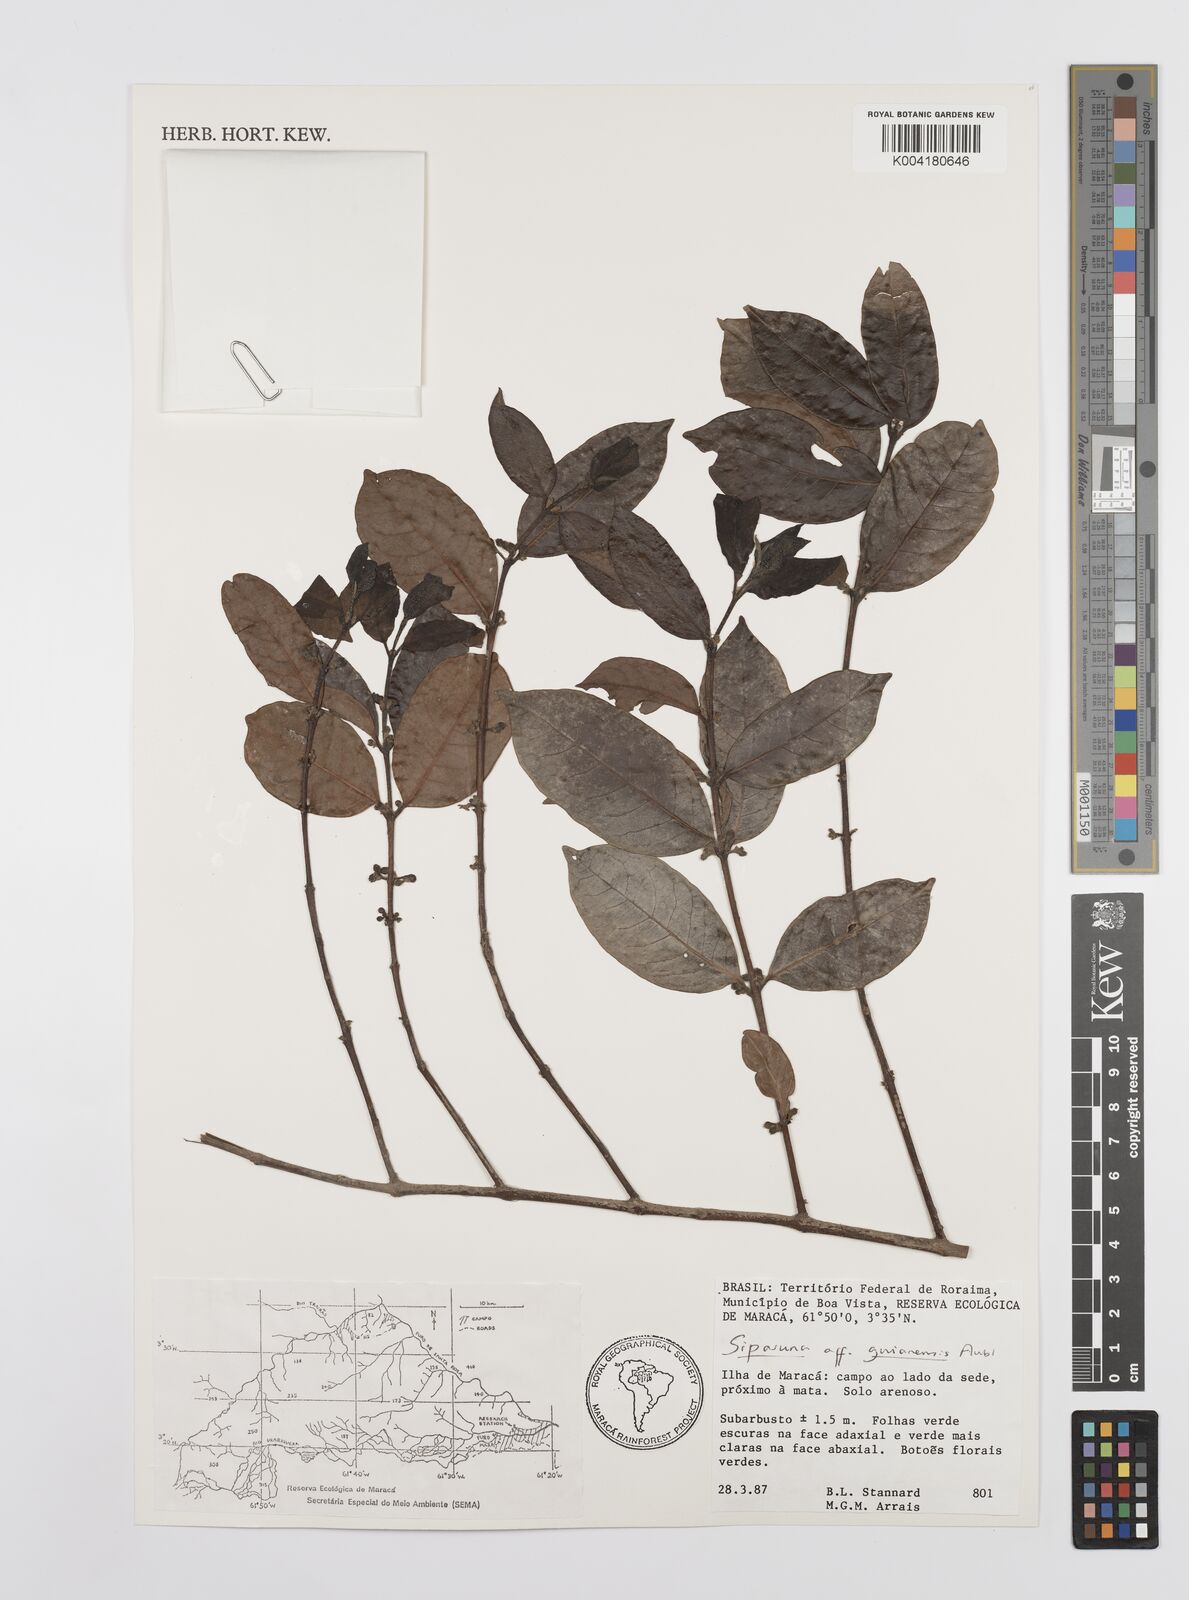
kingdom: Plantae
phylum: Tracheophyta
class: Magnoliopsida
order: Laurales
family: Siparunaceae
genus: Siparuna
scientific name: Siparuna guianensis
